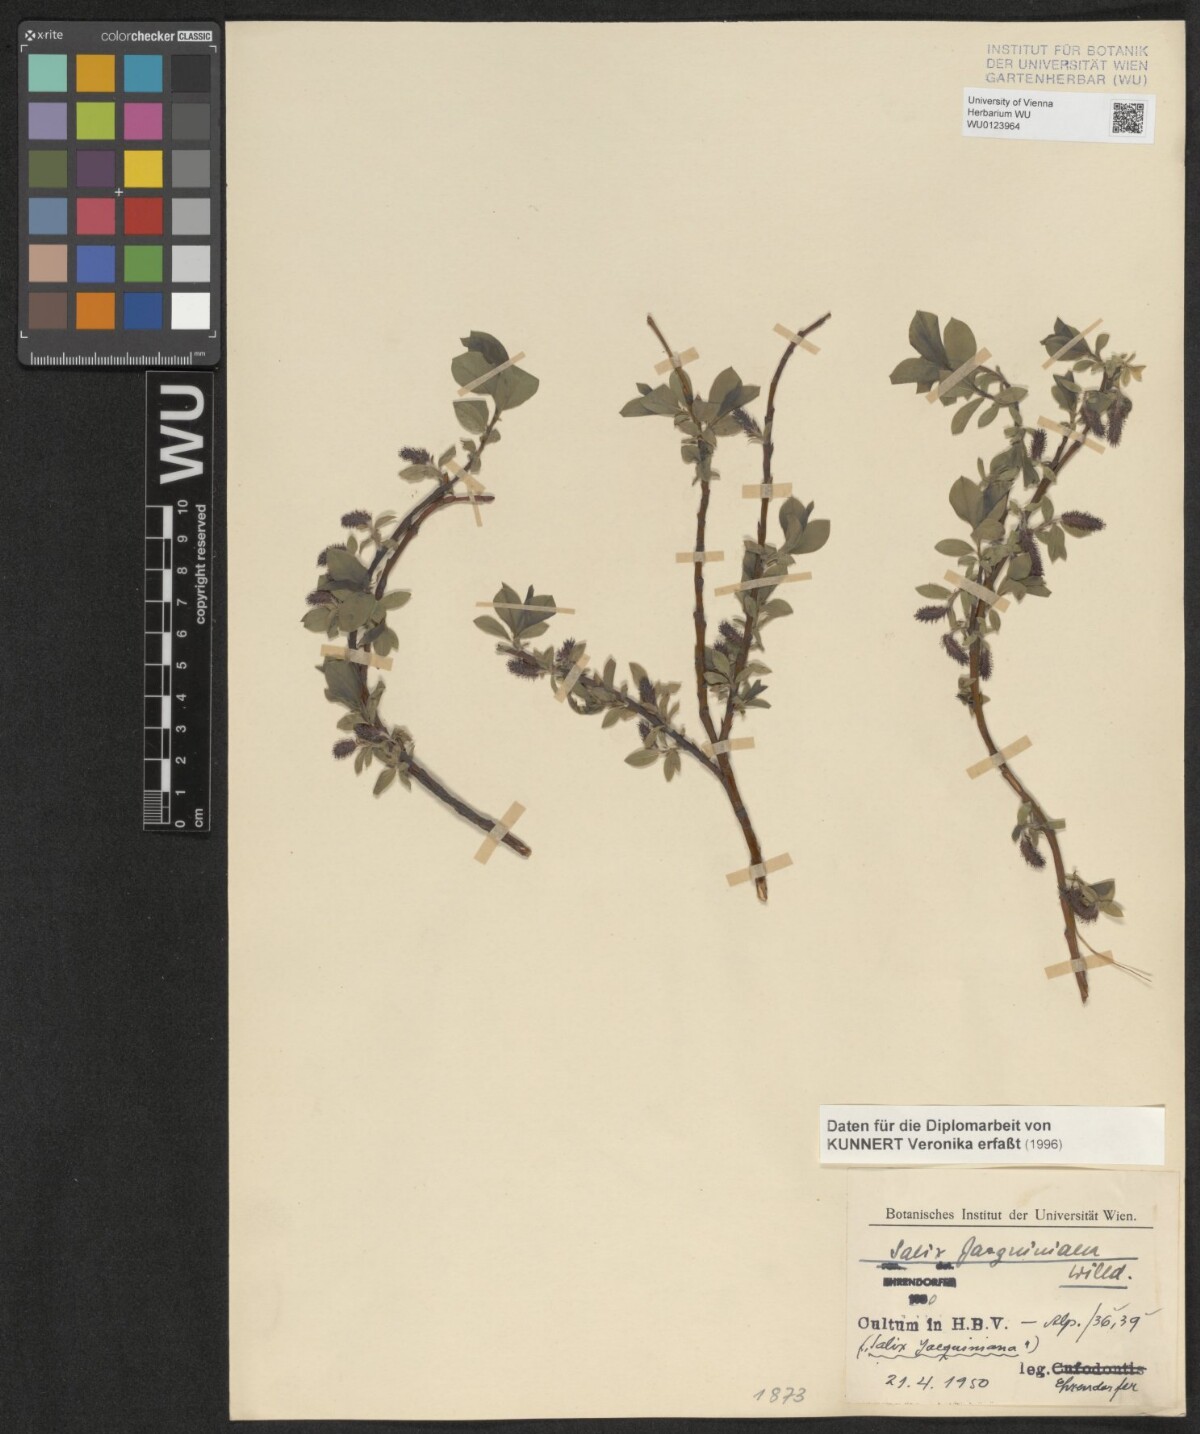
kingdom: Plantae
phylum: Tracheophyta
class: Magnoliopsida
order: Malpighiales
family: Salicaceae
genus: Salix
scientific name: Salix alpina
